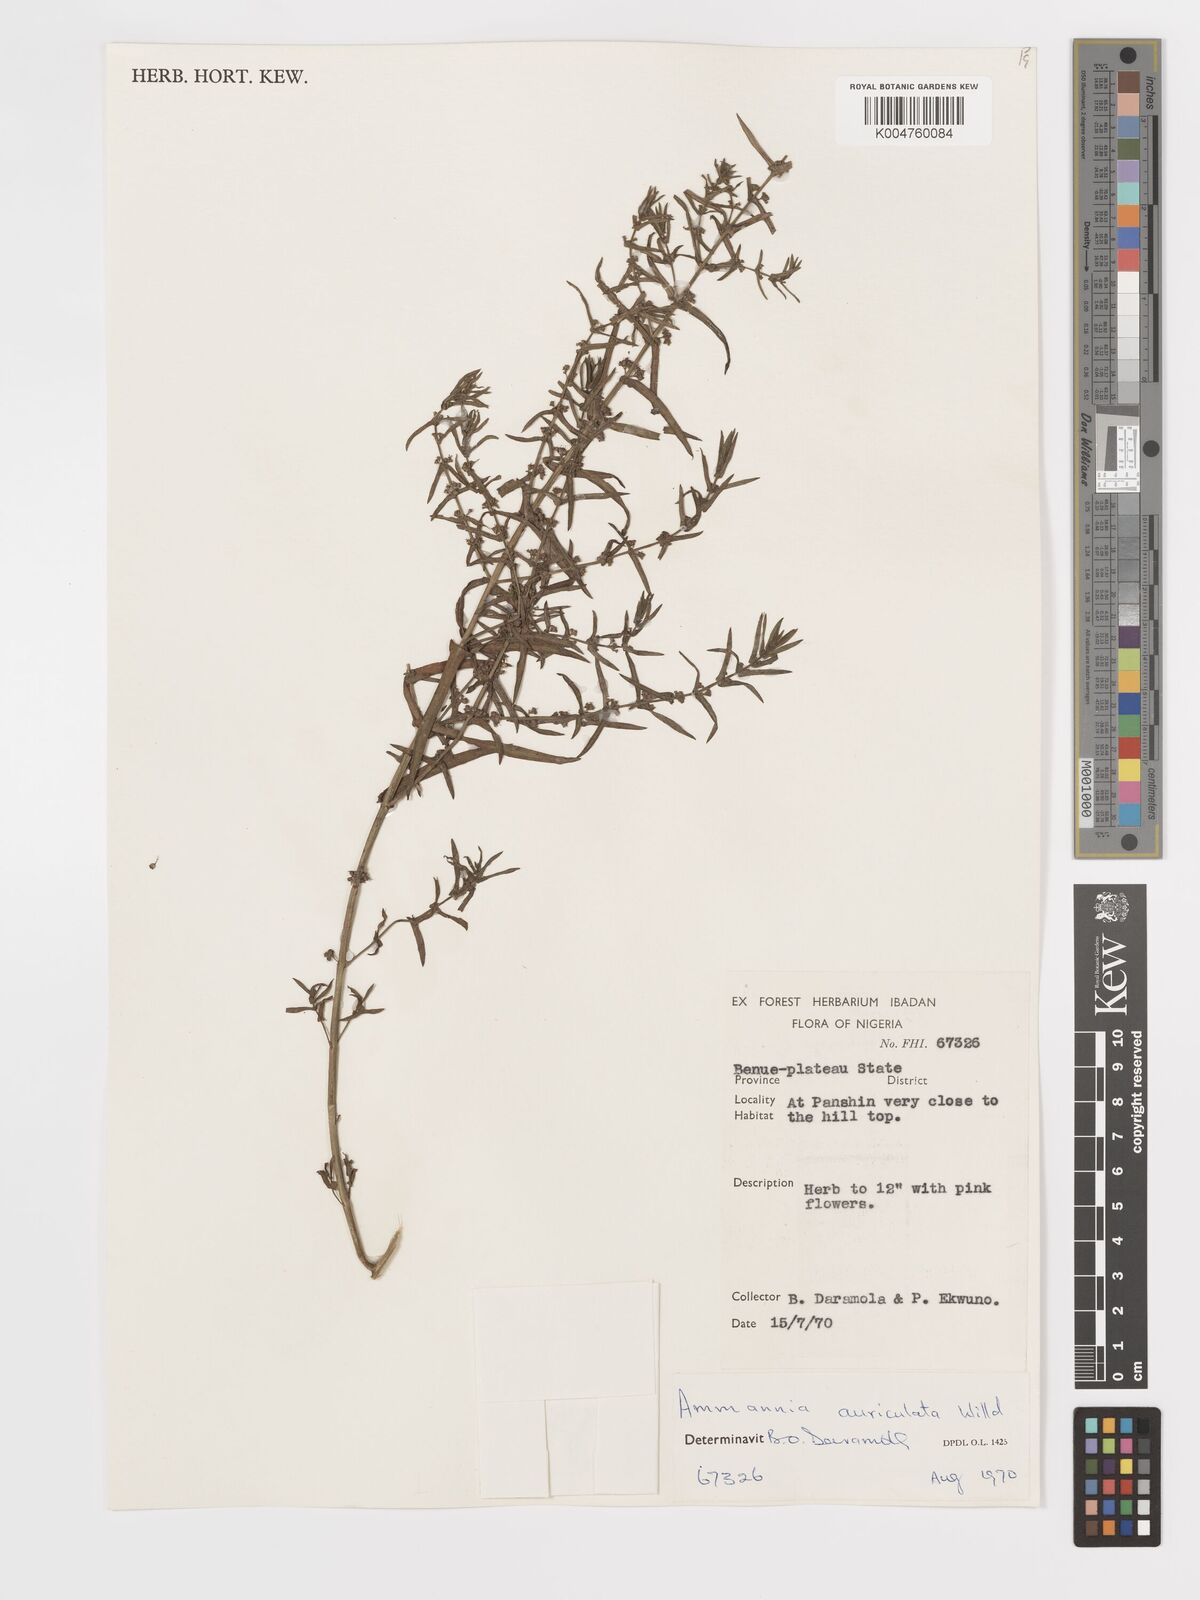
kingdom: Plantae
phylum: Tracheophyta
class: Magnoliopsida
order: Myrtales
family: Lythraceae
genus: Ammannia
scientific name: Ammannia auriculata
